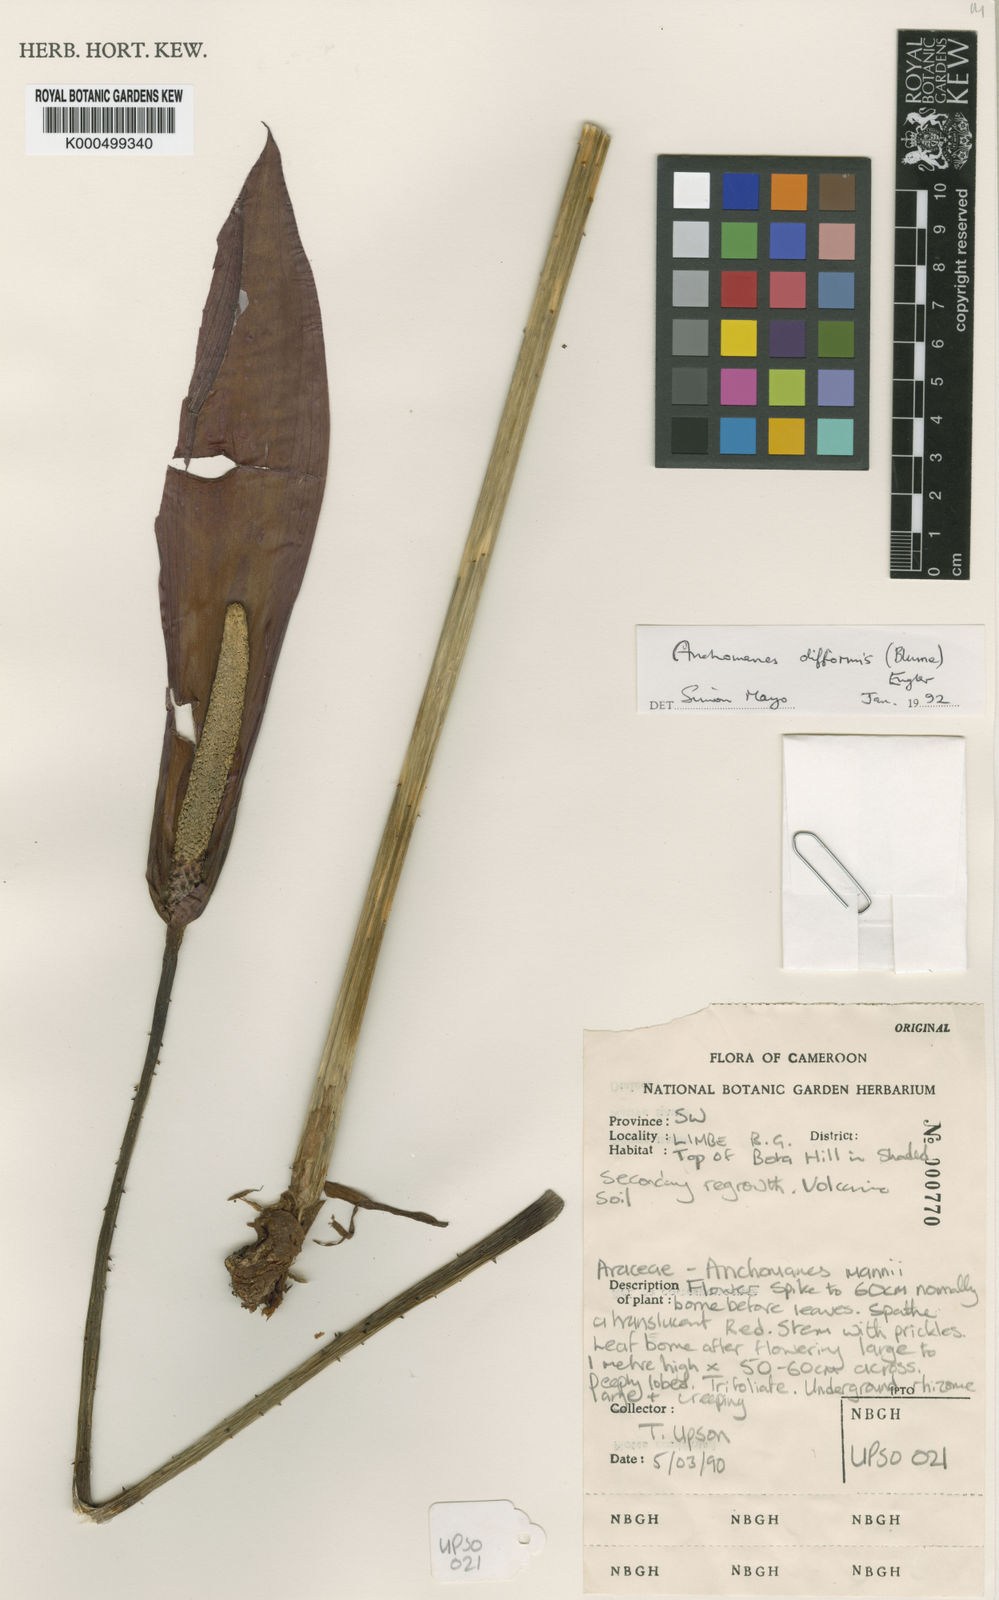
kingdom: Plantae
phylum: Tracheophyta
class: Liliopsida
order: Alismatales
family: Araceae
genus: Anchomanes
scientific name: Anchomanes difformis
